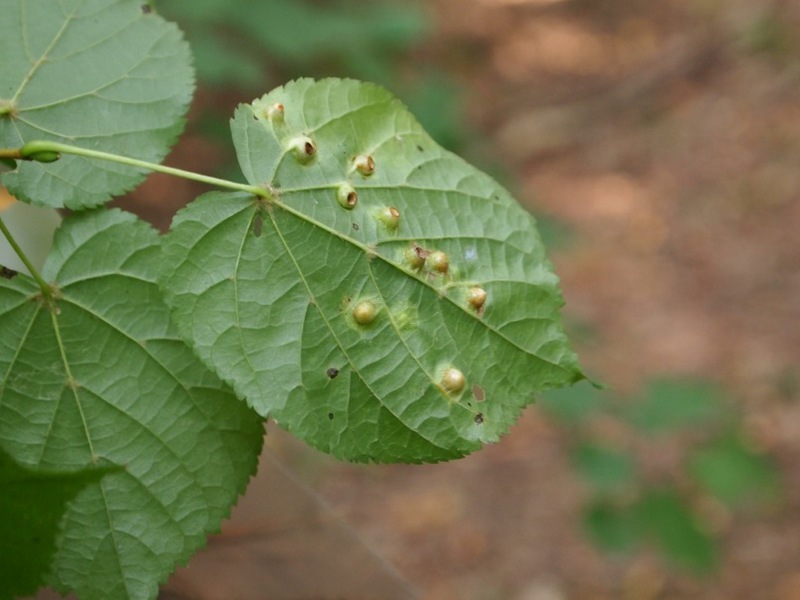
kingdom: Animalia
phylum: Arthropoda
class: Insecta
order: Diptera
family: Cecidomyiidae
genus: Didymomyia
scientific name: Didymomyia tiliacea
